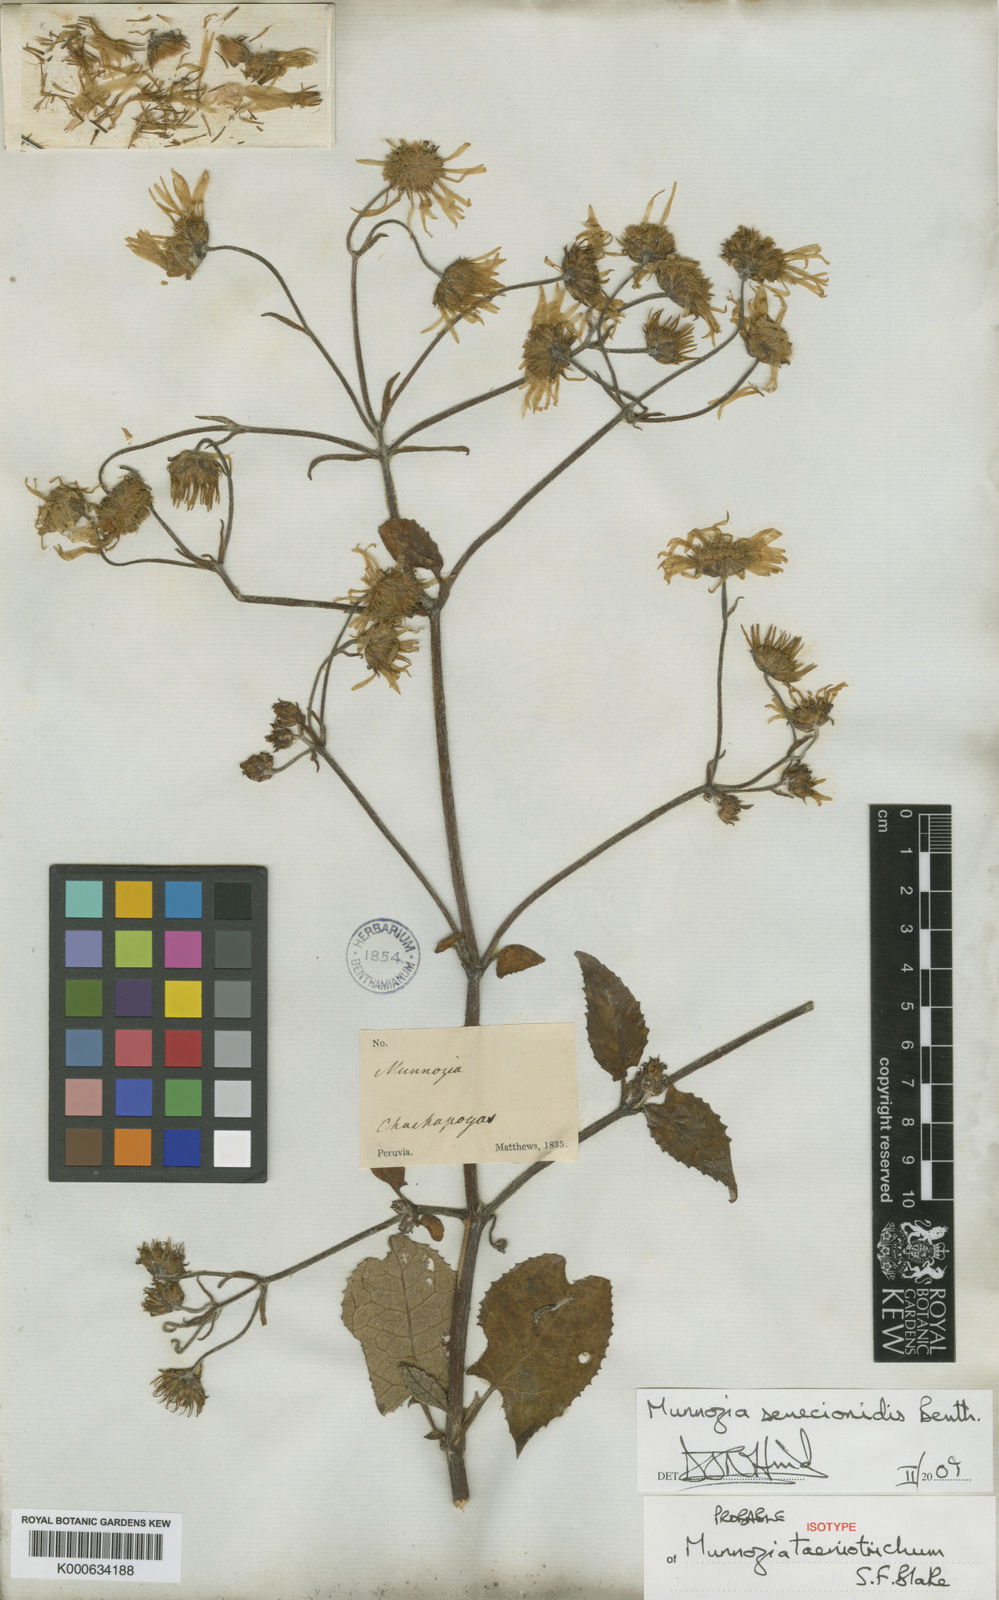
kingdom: Plantae
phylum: Tracheophyta
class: Magnoliopsida
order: Asterales
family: Asteraceae
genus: Munnozia
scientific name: Munnozia senecionidis
